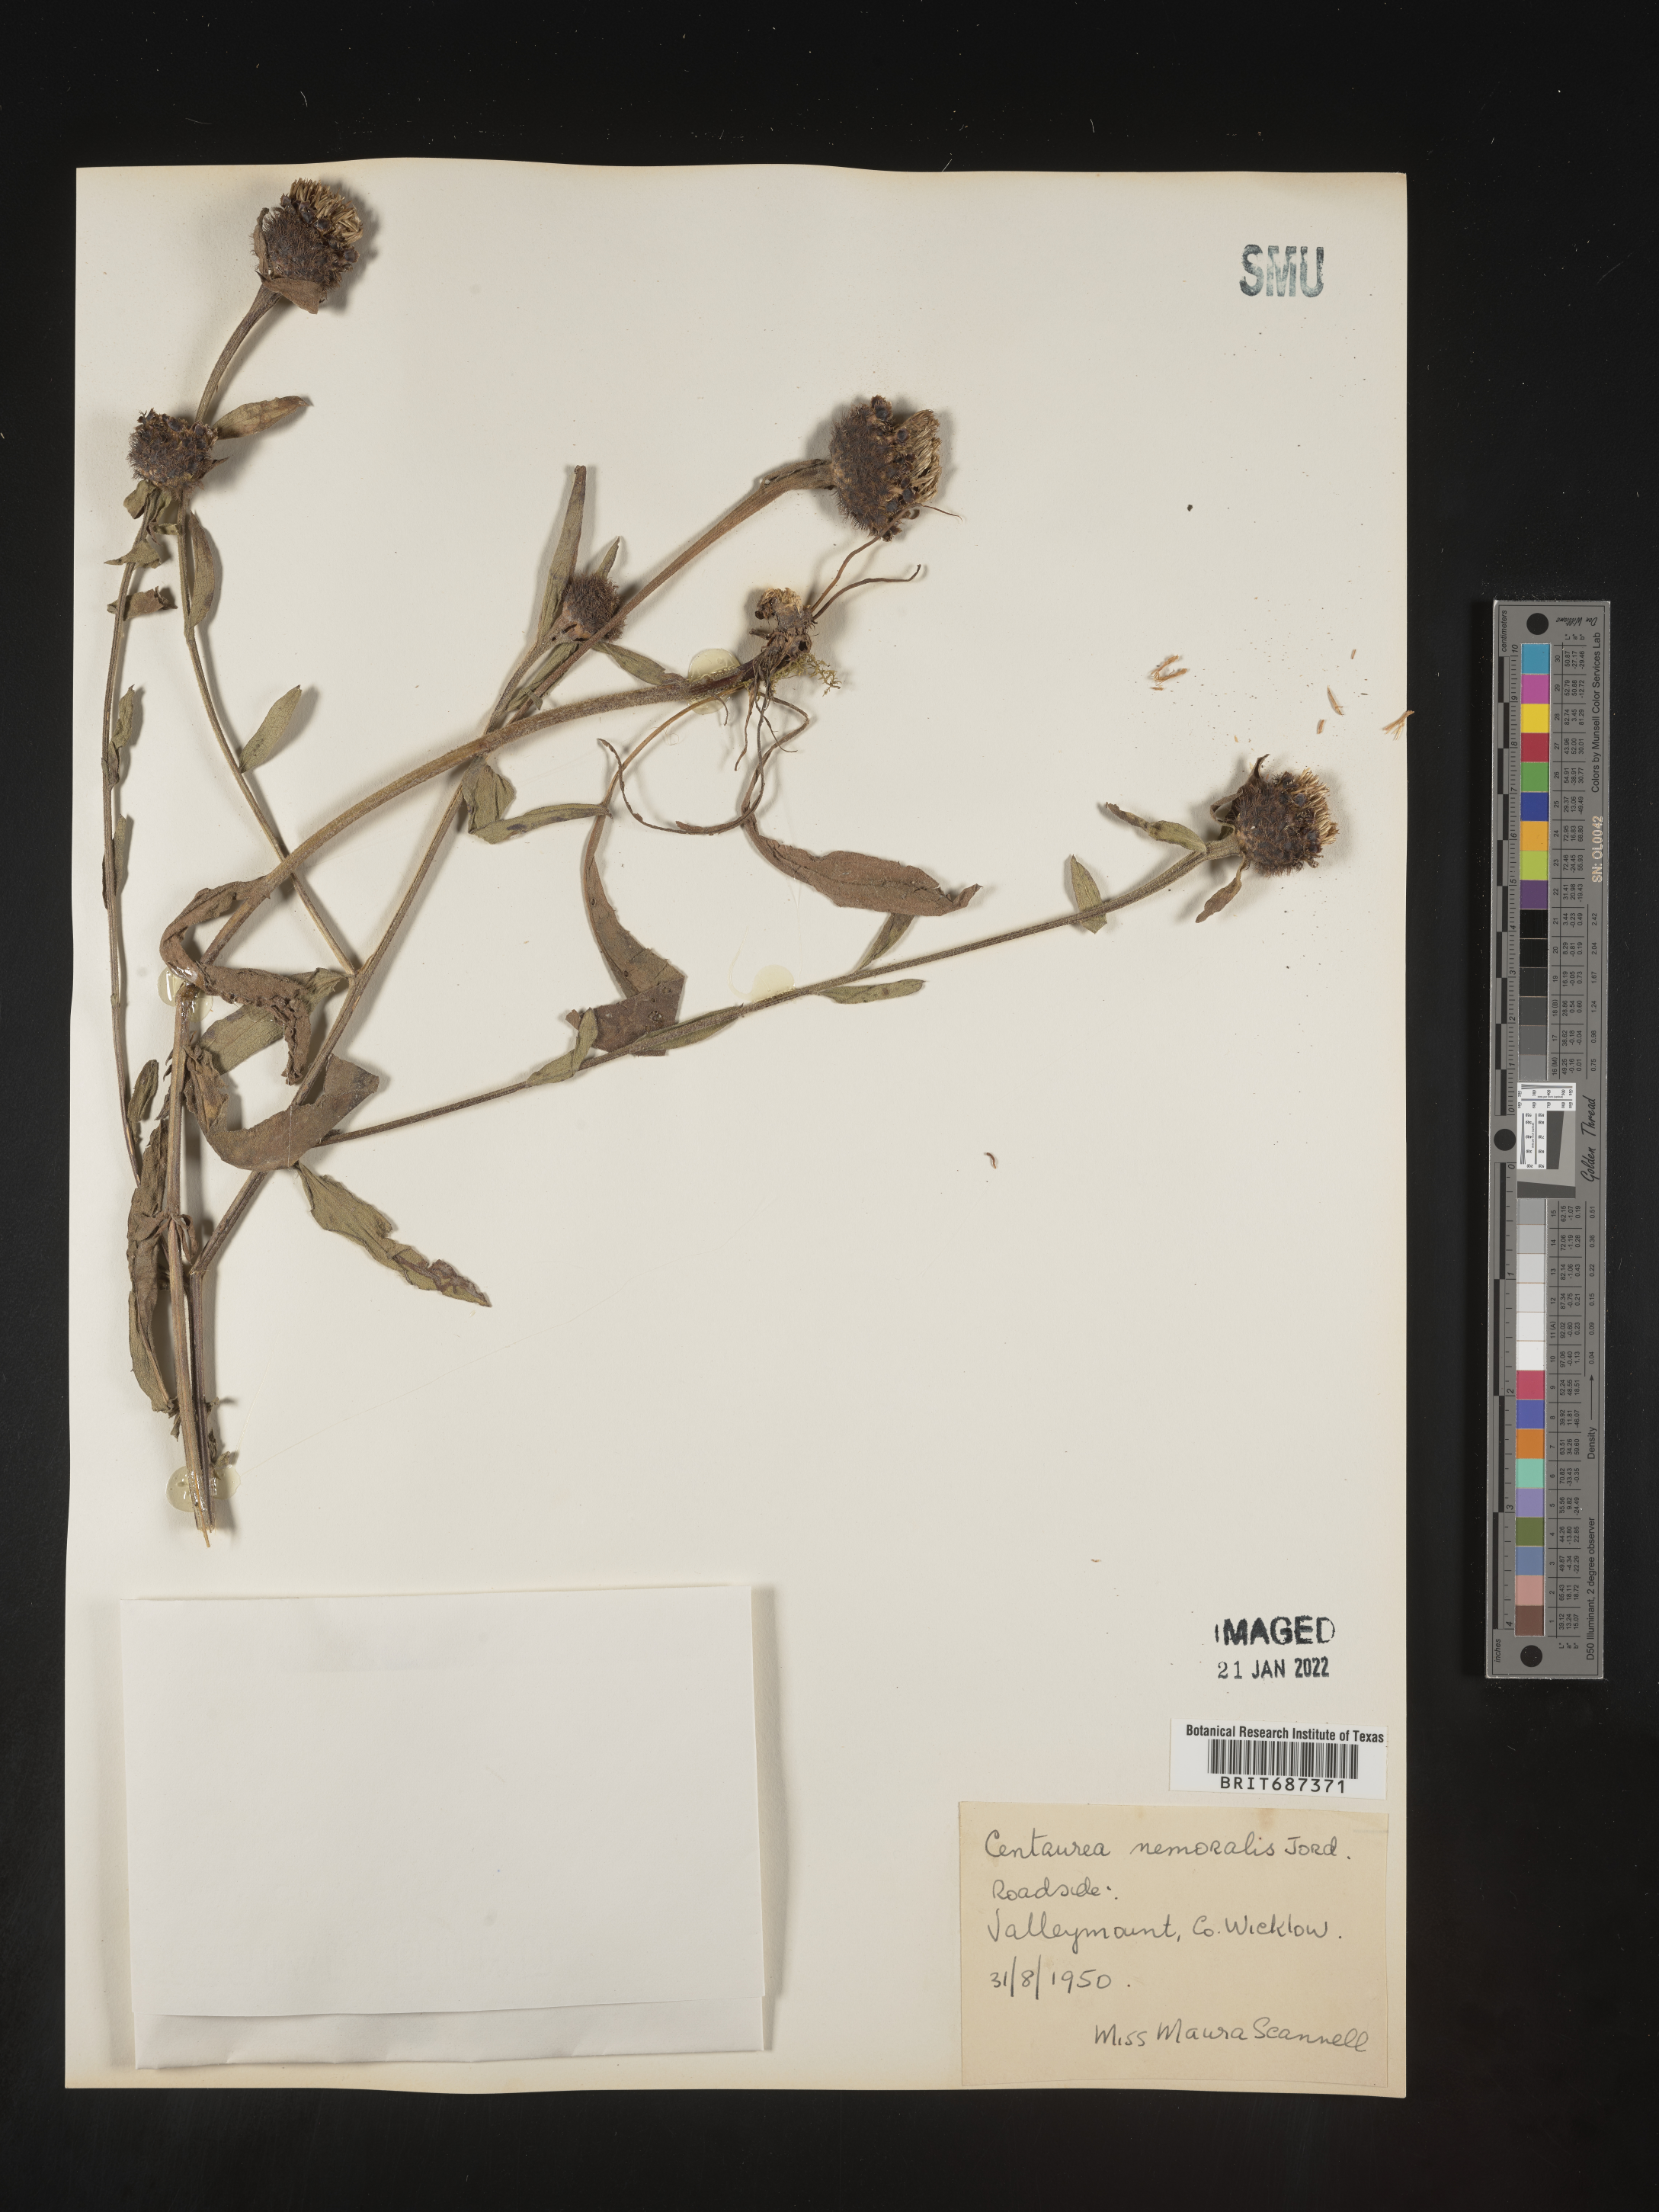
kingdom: Plantae
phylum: Tracheophyta
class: Magnoliopsida
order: Asterales
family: Asteraceae
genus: Centaurea
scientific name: Centaurea
